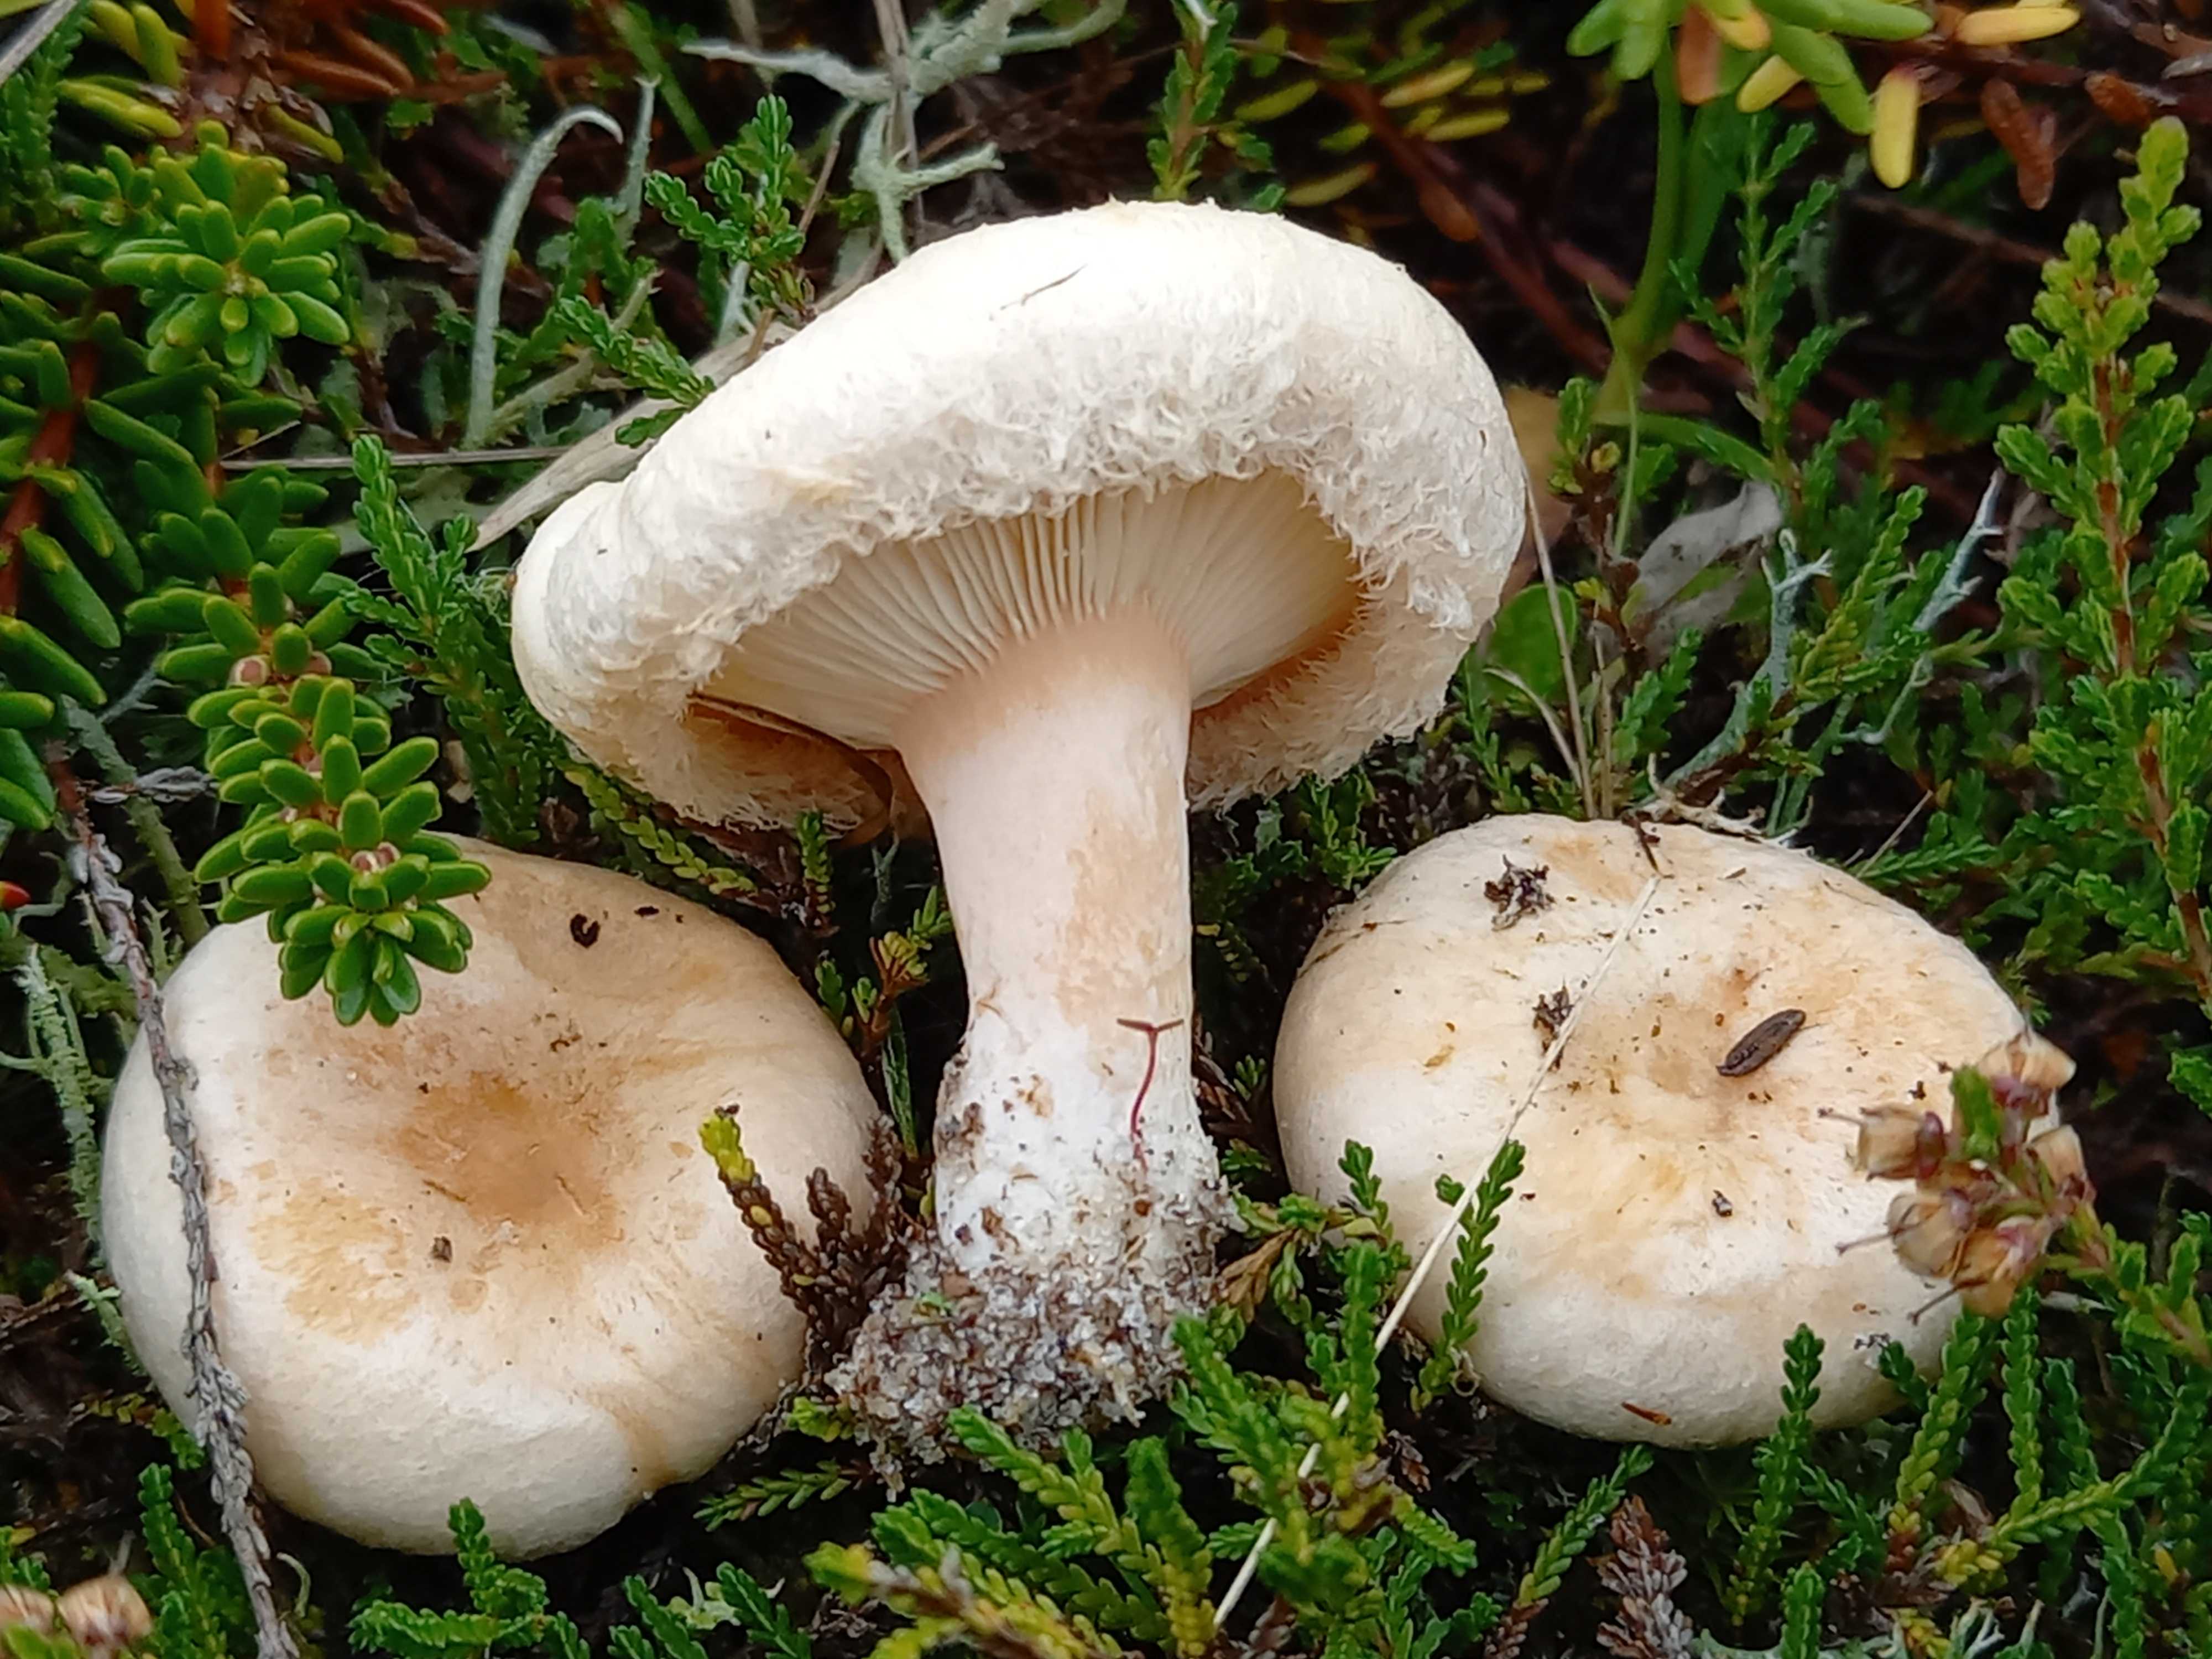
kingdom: Fungi
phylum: Basidiomycota
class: Agaricomycetes
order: Russulales
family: Russulaceae
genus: Lactarius
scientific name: Lactarius pubescens
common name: dunet mælkehat
